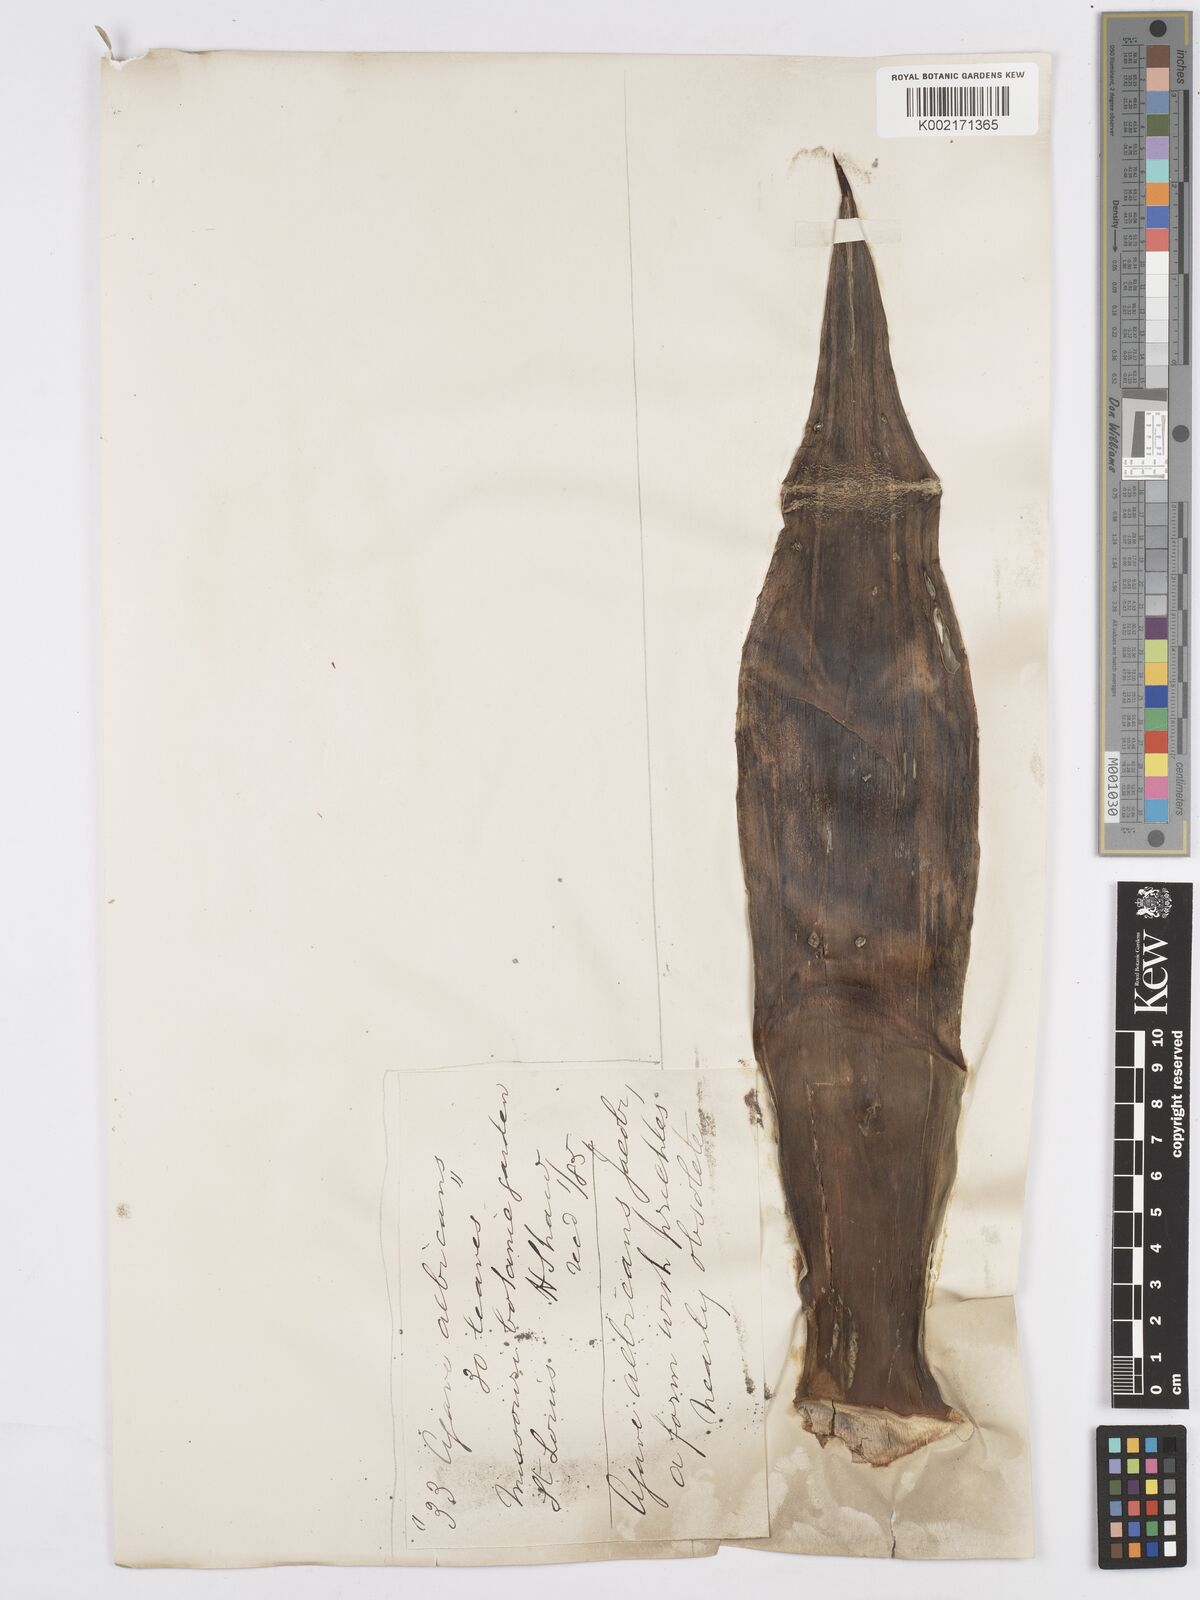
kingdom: Plantae
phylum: Tracheophyta
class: Liliopsida
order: Asparagales
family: Asparagaceae
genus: Agave
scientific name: Agave mitis
